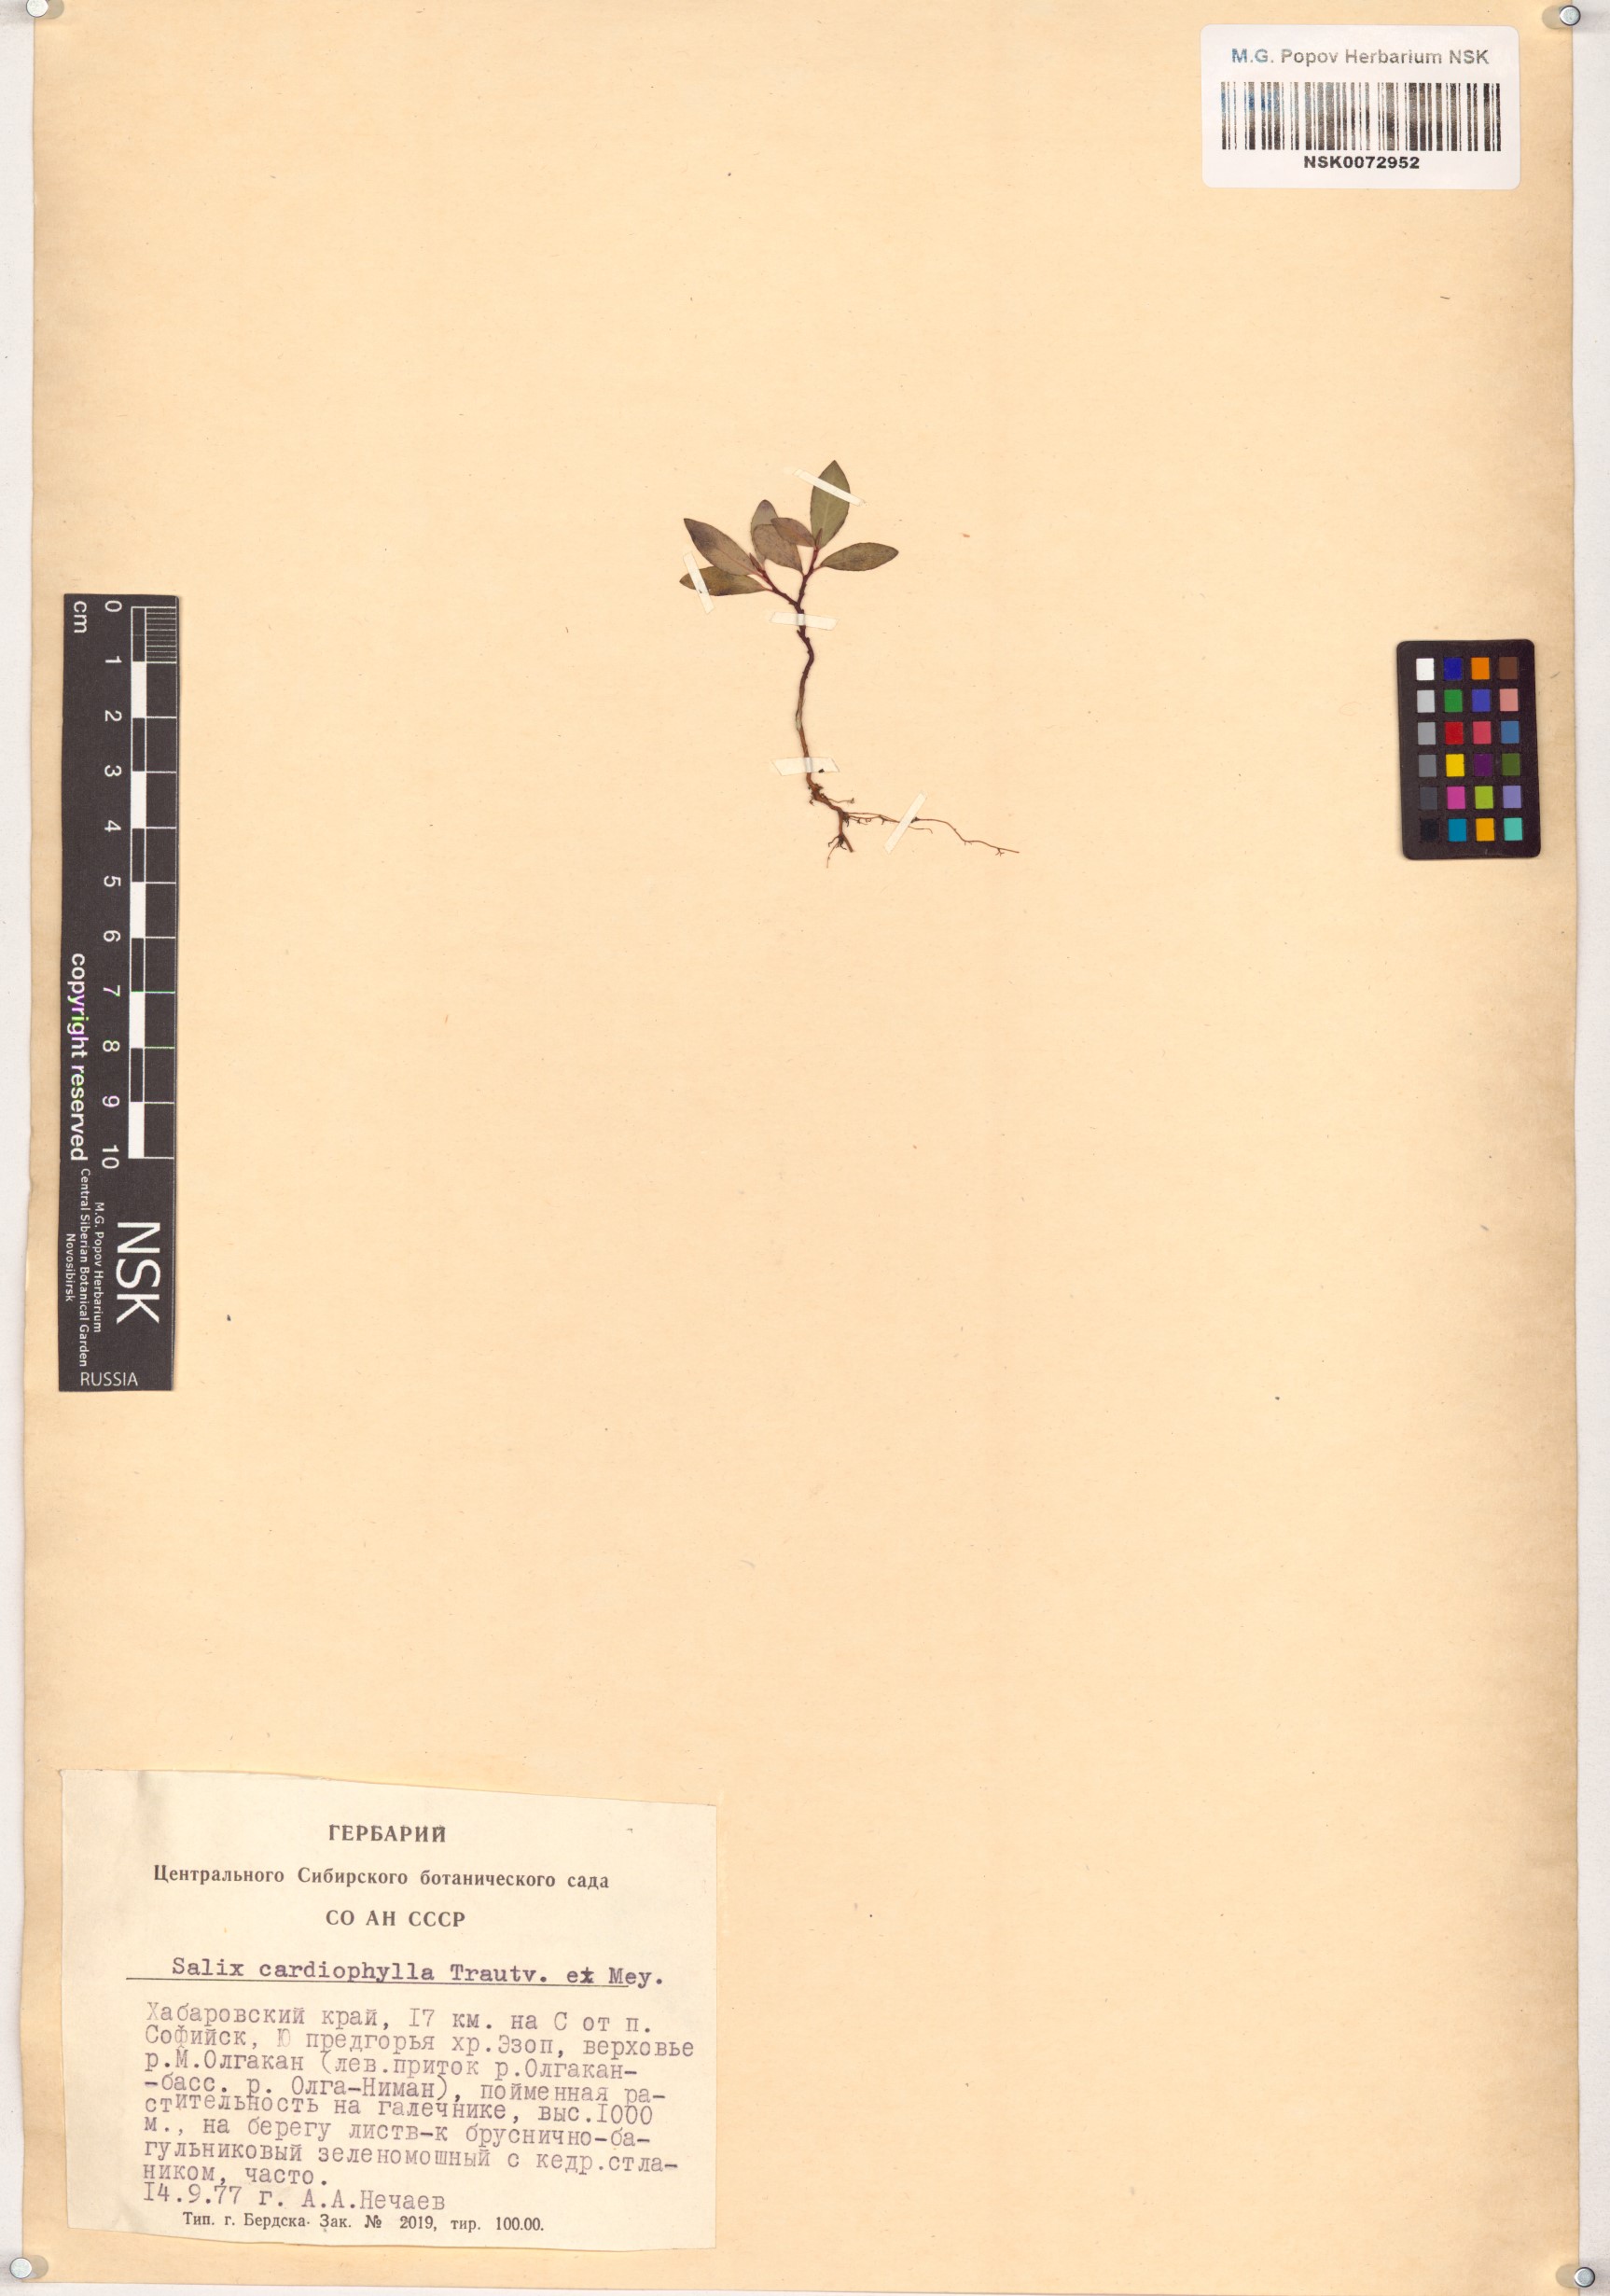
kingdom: Plantae
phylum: Tracheophyta
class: Magnoliopsida
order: Malpighiales
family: Salicaceae
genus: Chosenia
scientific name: Chosenia cardiophylla
